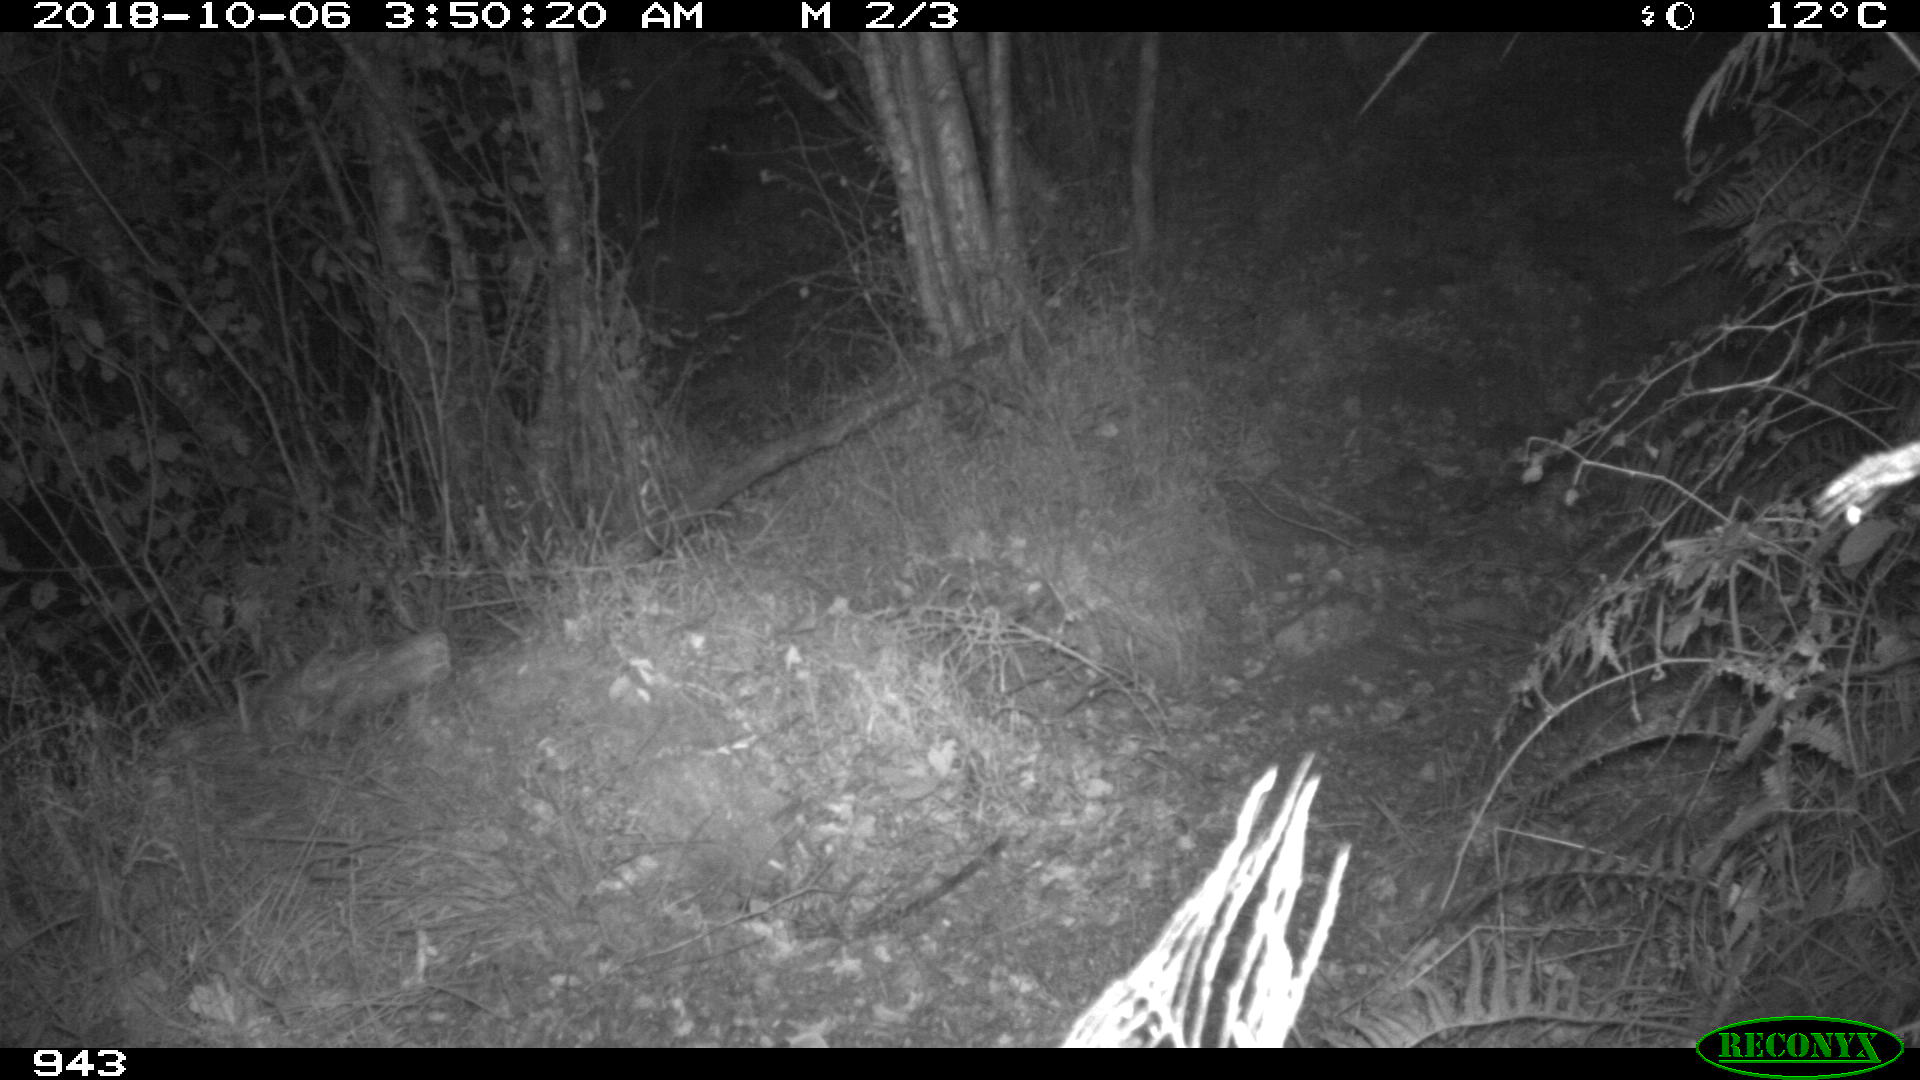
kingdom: Animalia
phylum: Chordata
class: Mammalia
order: Artiodactyla
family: Cervidae
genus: Capreolus
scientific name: Capreolus capreolus
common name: Western roe deer
